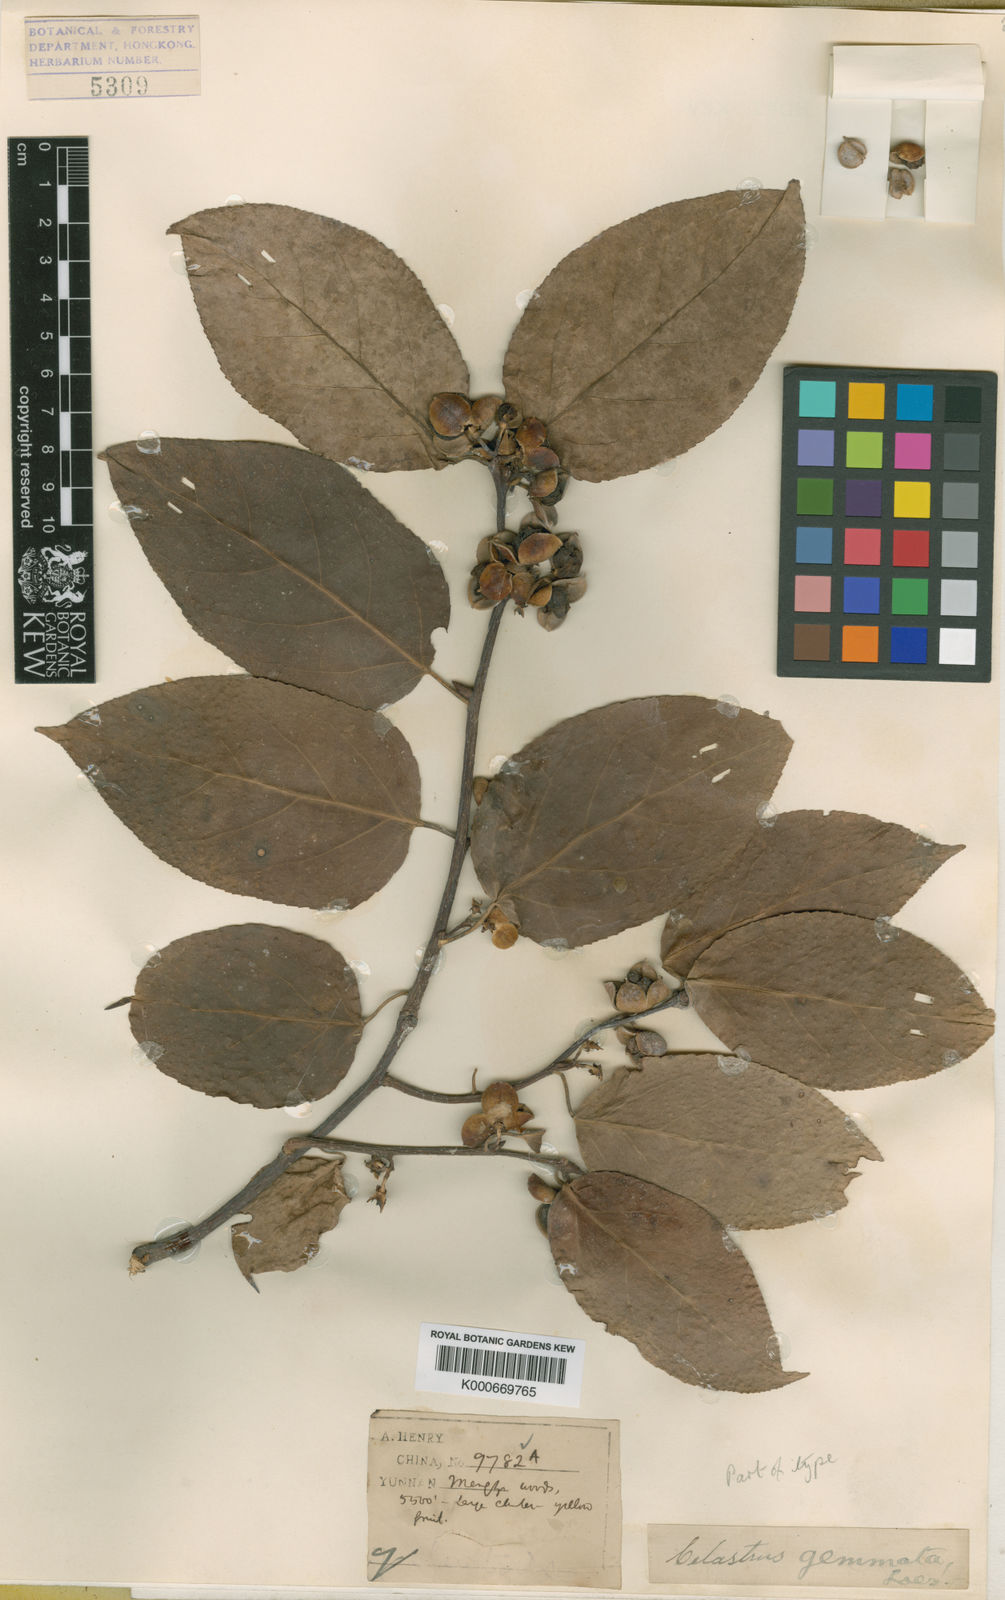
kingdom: Plantae
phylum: Tracheophyta
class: Magnoliopsida
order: Celastrales
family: Celastraceae
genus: Celastrus
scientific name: Celastrus gemmatus
